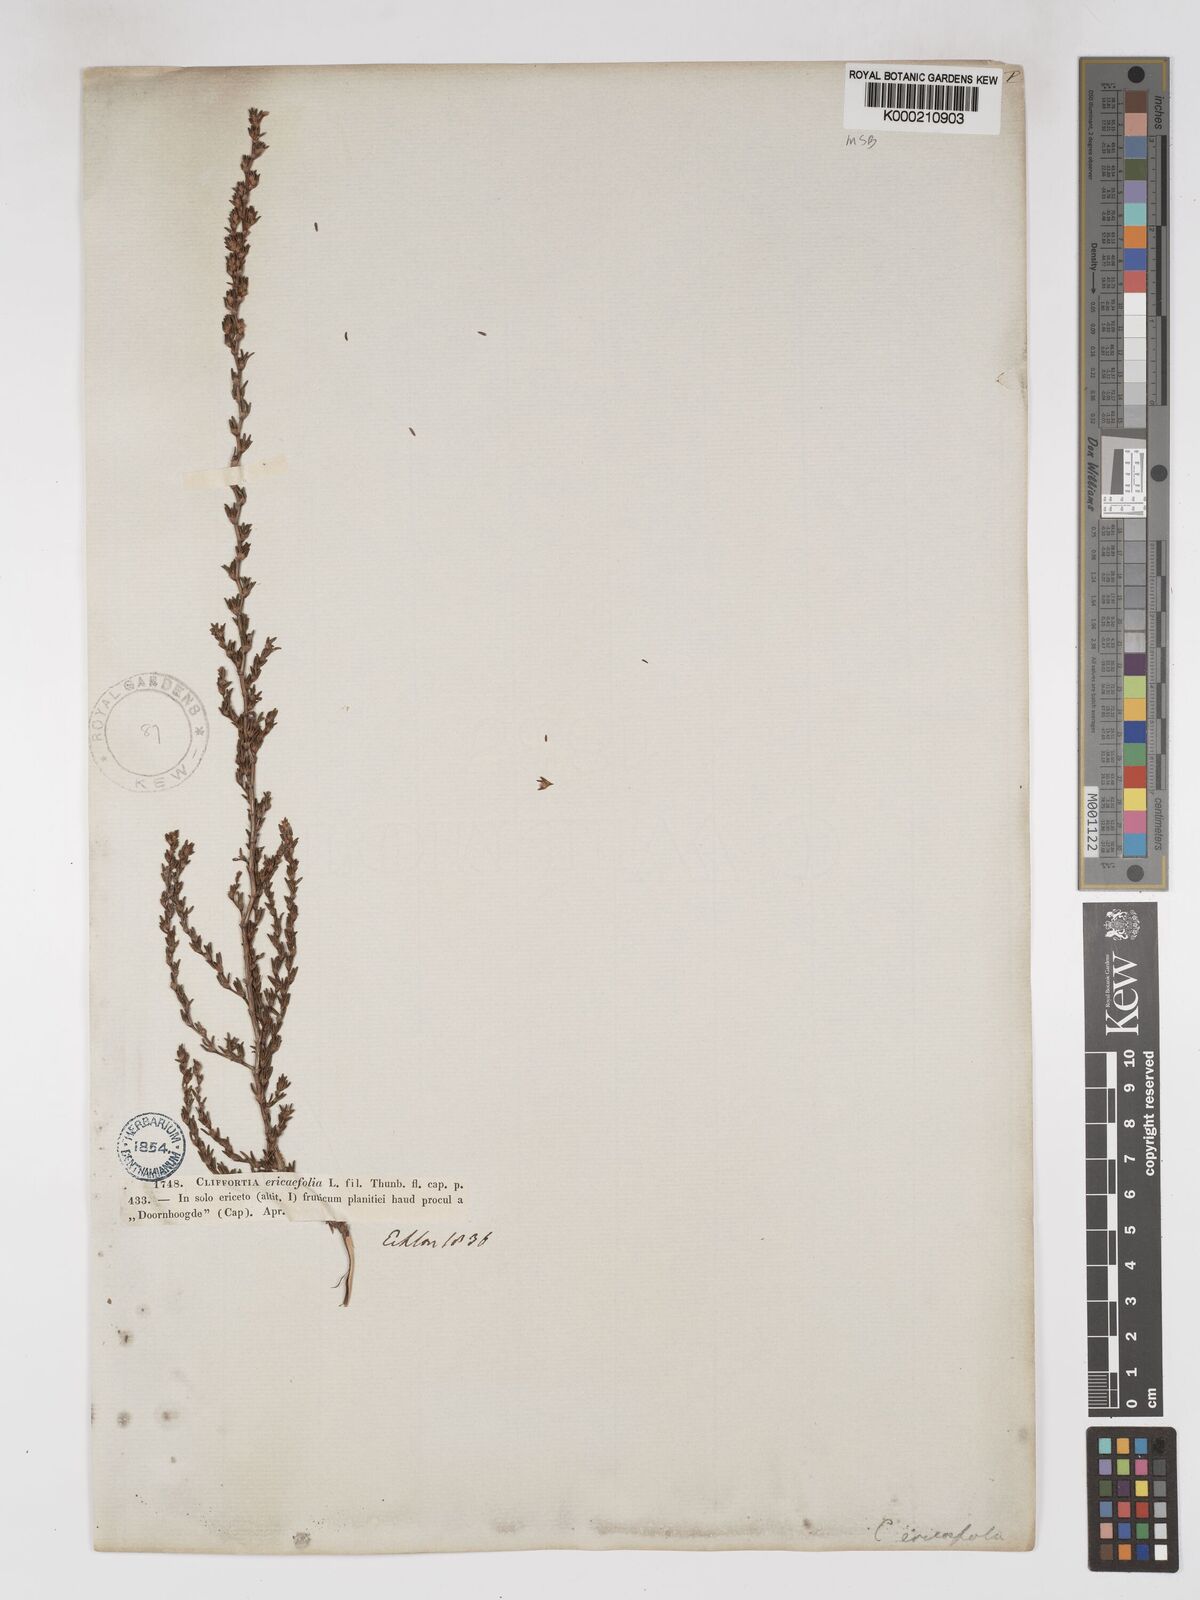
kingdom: Plantae
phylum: Tracheophyta
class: Magnoliopsida
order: Rosales
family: Rosaceae
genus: Cliffortia
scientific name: Cliffortia ericifolia
